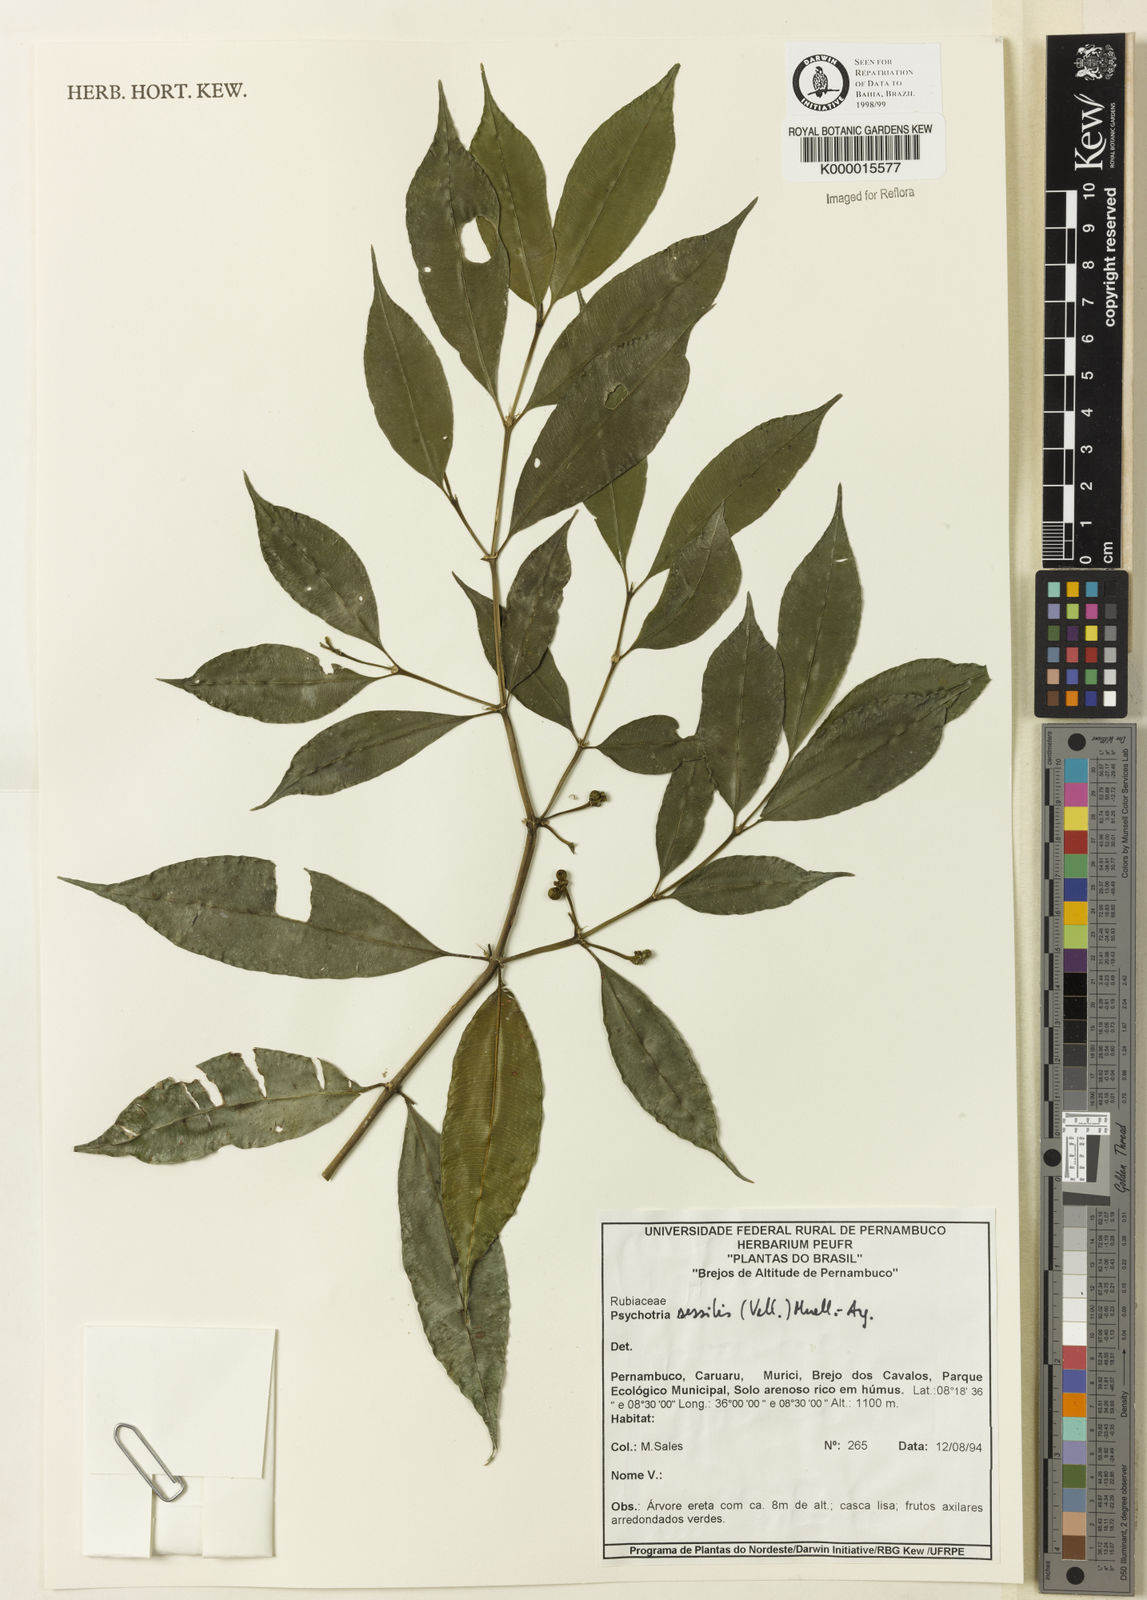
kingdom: Plantae
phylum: Tracheophyta
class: Magnoliopsida
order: Gentianales
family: Rubiaceae
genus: Psychotria
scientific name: Psychotria
